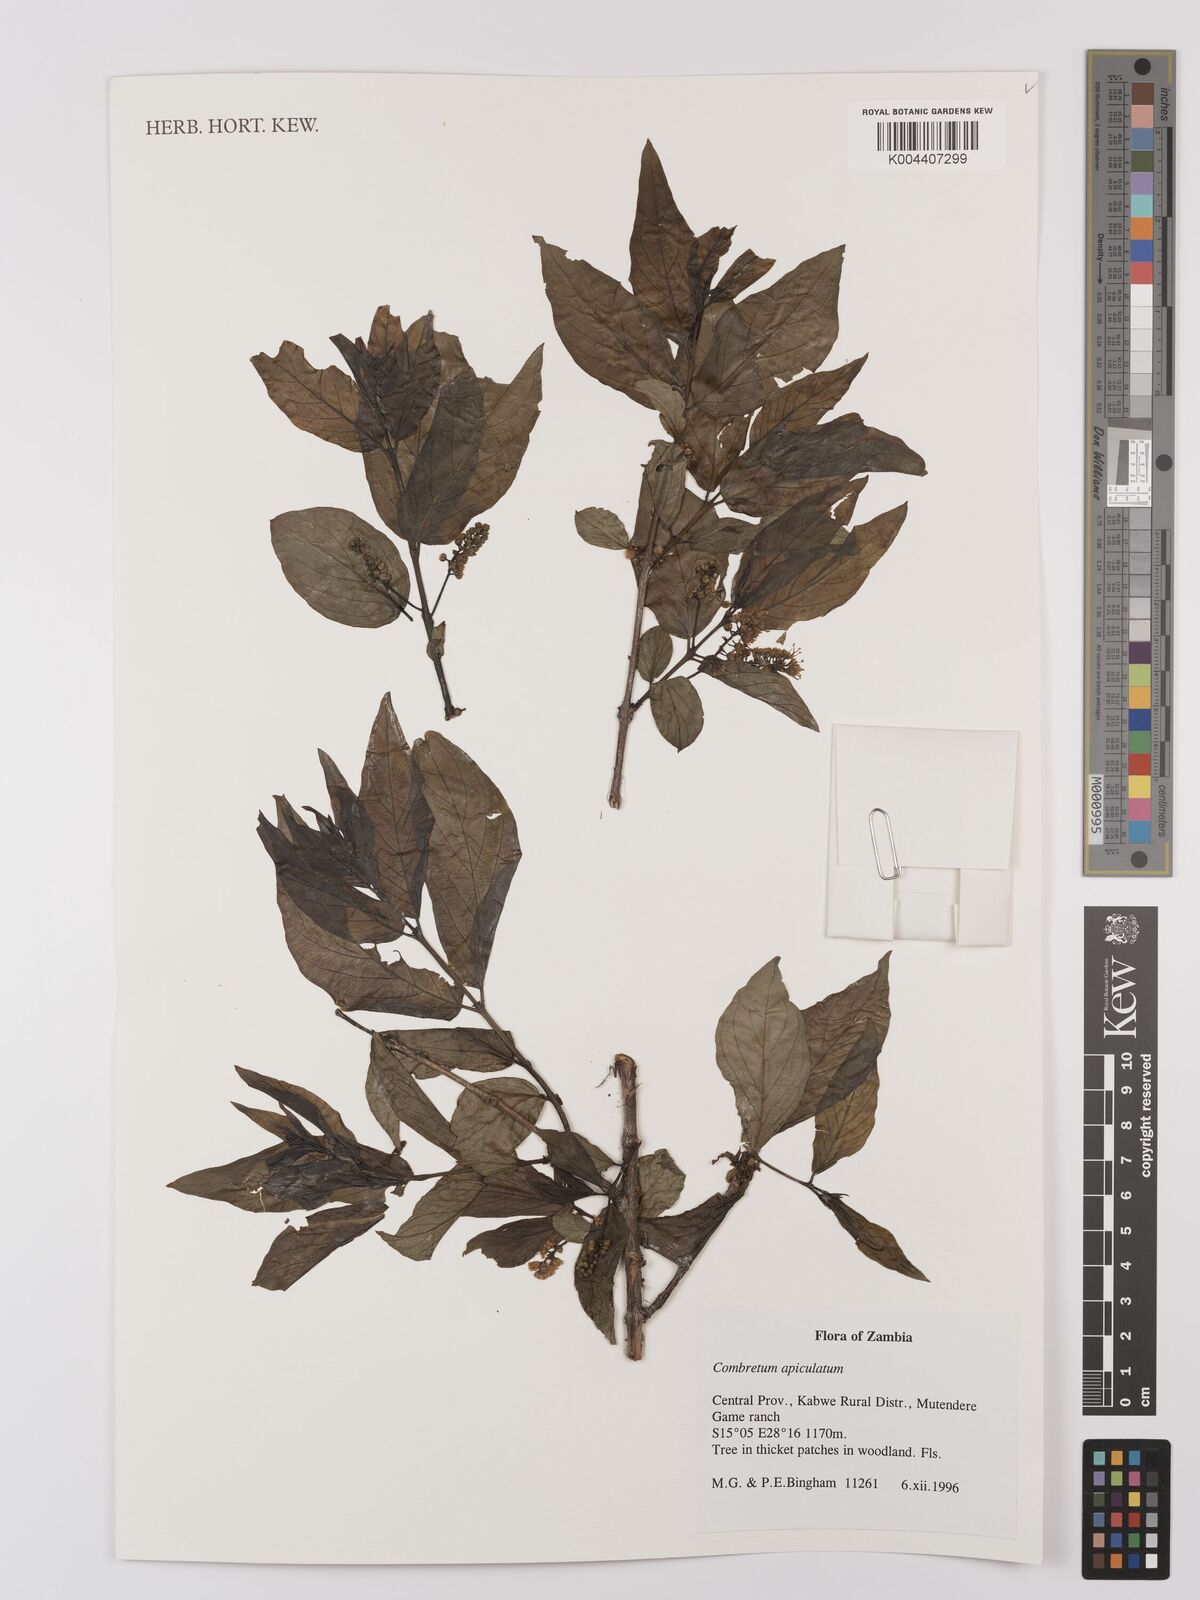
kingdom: Plantae
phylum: Tracheophyta
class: Magnoliopsida
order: Myrtales
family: Combretaceae
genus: Combretum
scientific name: Combretum apiculatum
